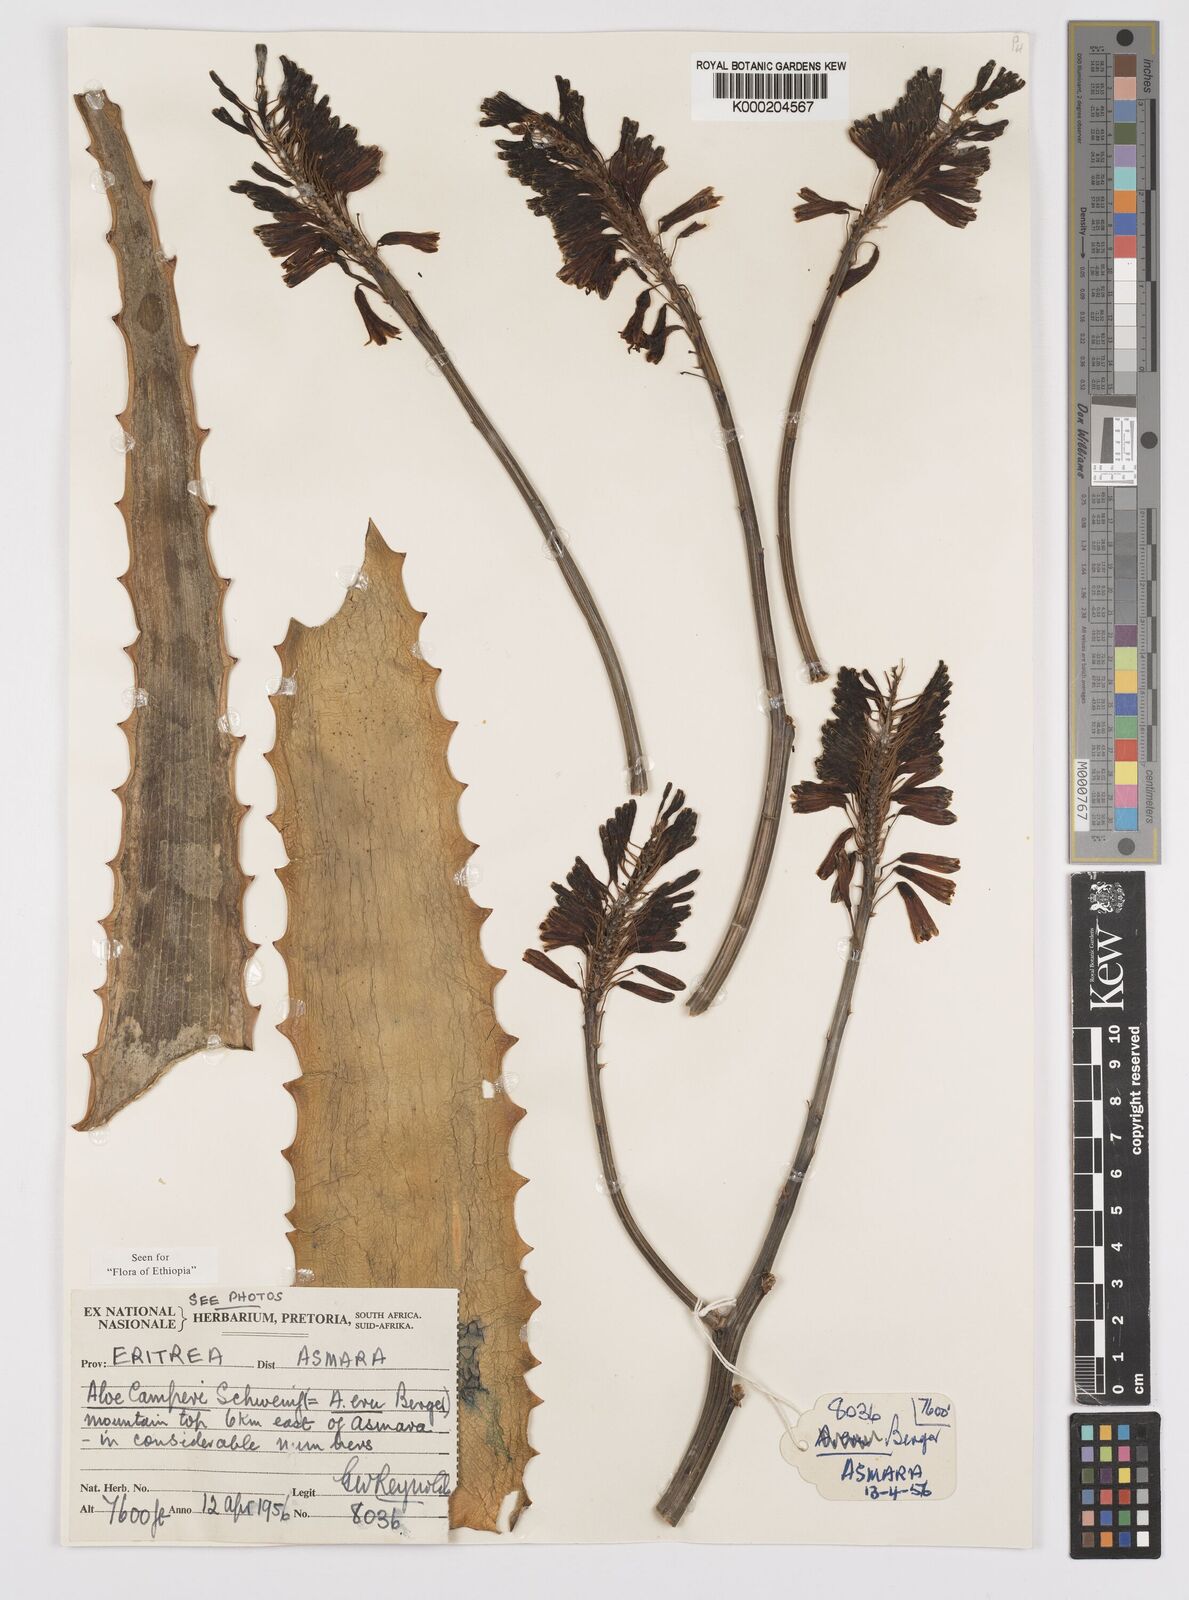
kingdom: Plantae
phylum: Tracheophyta
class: Liliopsida
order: Asparagales
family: Asphodelaceae
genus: Aloe
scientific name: Aloe camperi
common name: Camper's aloe
